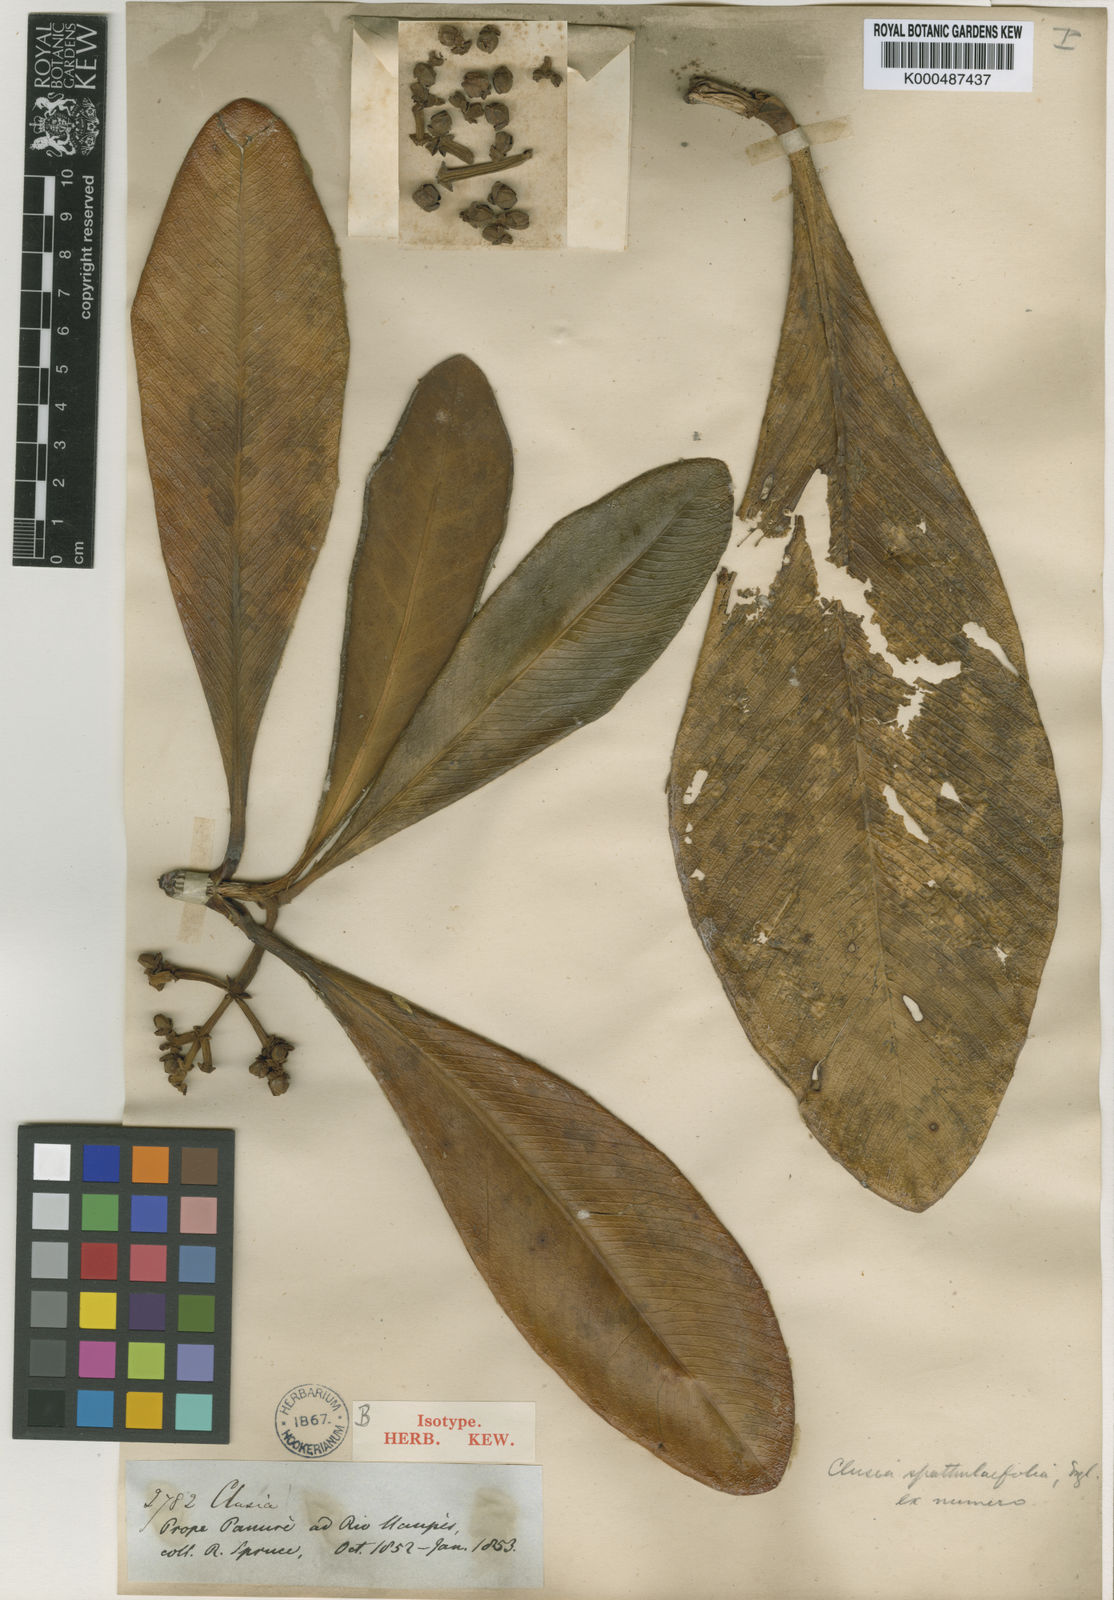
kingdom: Plantae
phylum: Tracheophyta
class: Magnoliopsida
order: Malpighiales
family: Clusiaceae
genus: Clusia
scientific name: Clusia spathulifolia
